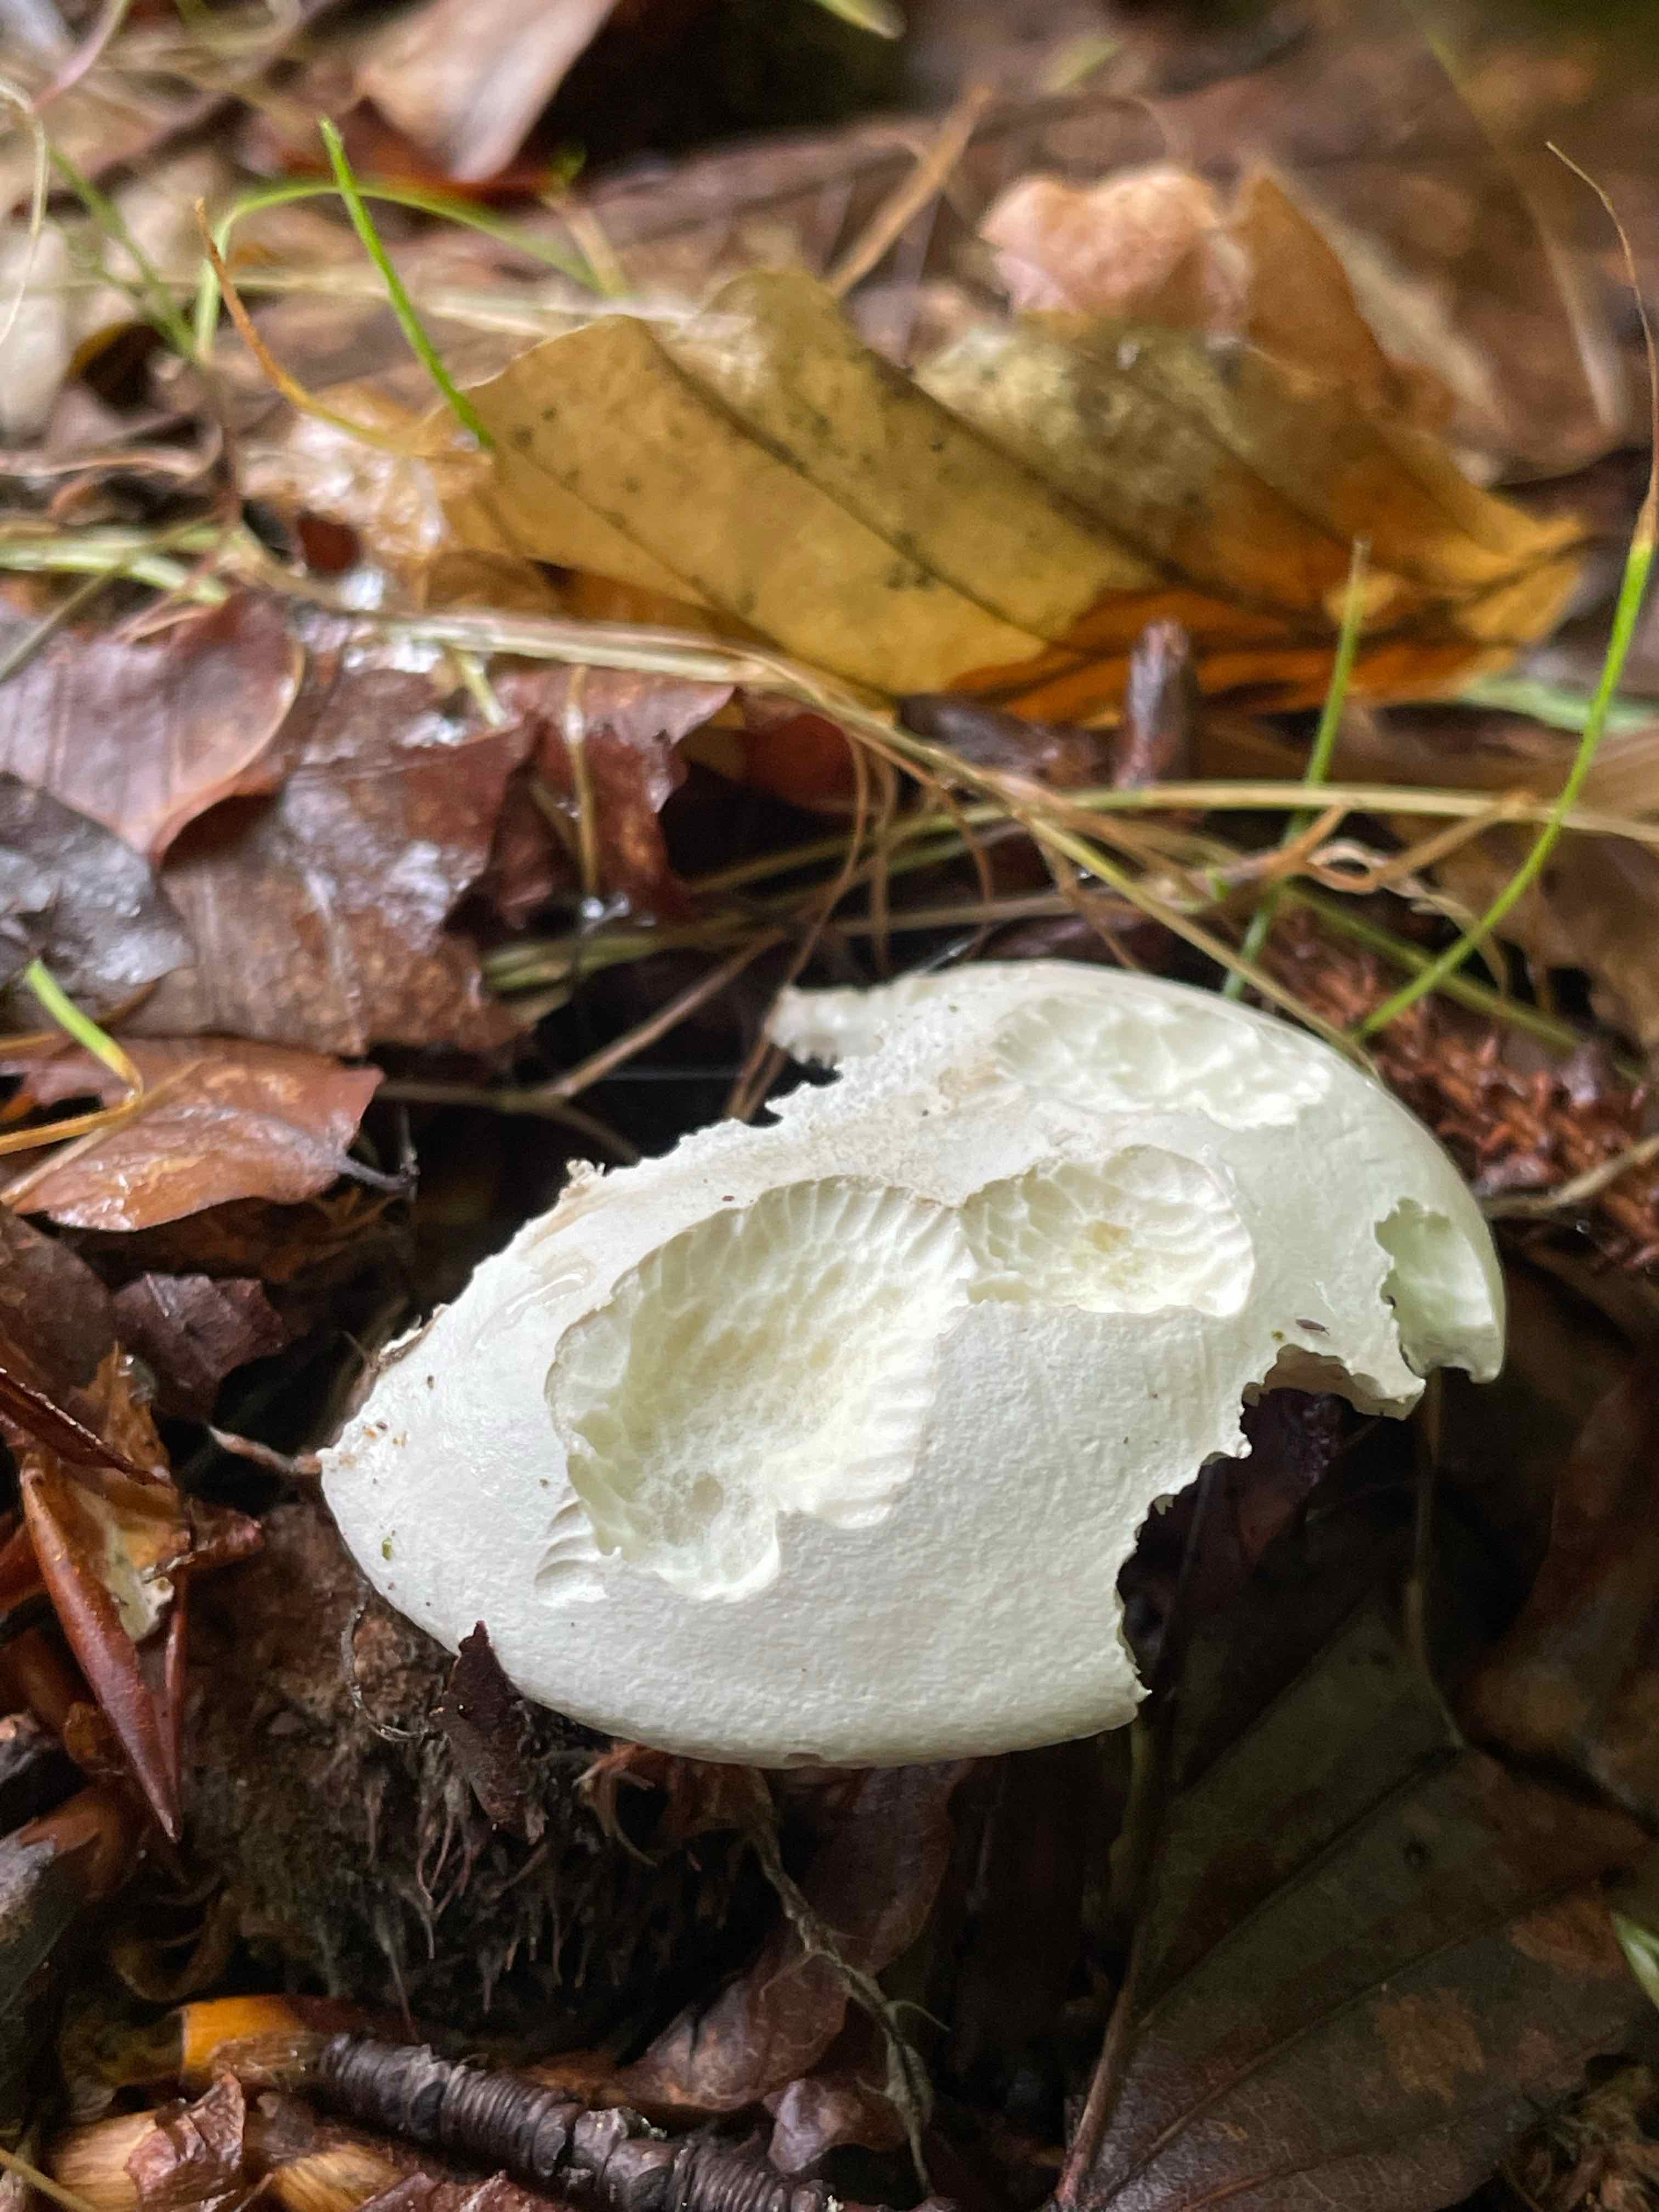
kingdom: Fungi
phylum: Basidiomycota
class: Agaricomycetes
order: Agaricales
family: Entolomataceae
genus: Clitopilus
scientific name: Clitopilus prunulus
